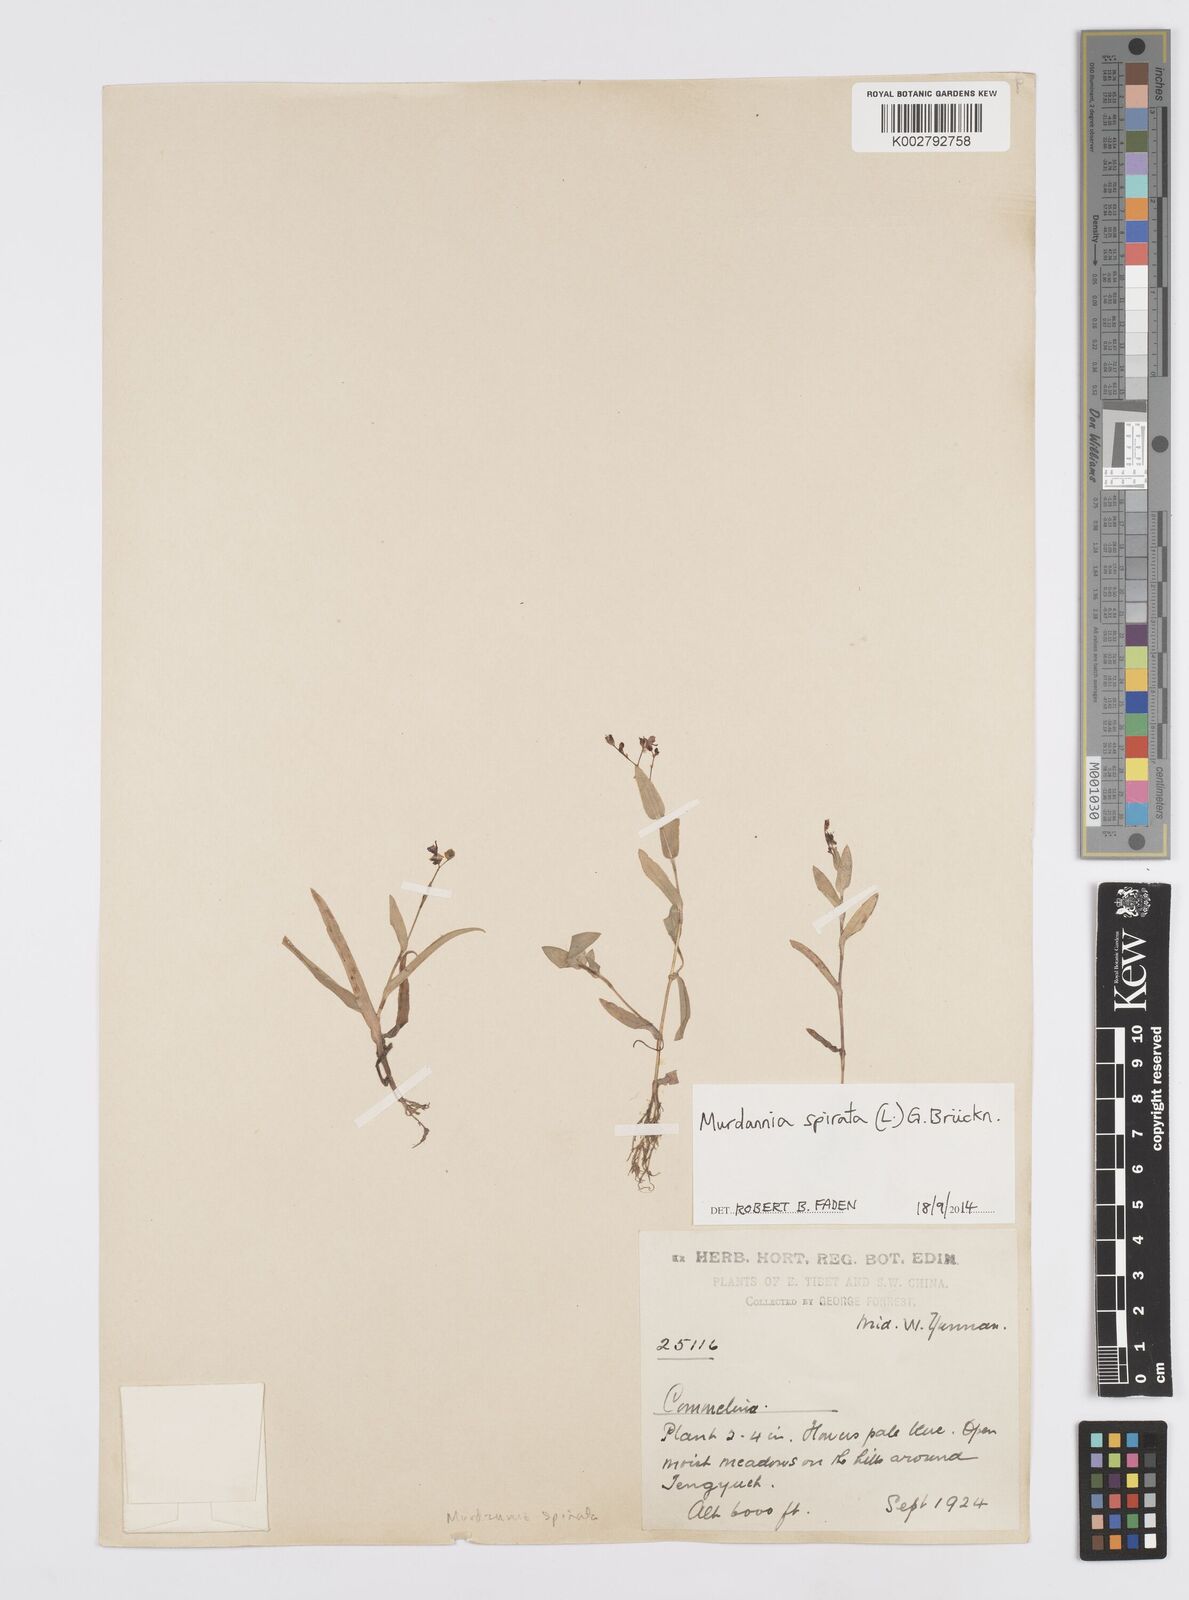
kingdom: Plantae
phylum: Tracheophyta
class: Liliopsida
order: Commelinales
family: Commelinaceae
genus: Murdannia
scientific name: Murdannia
